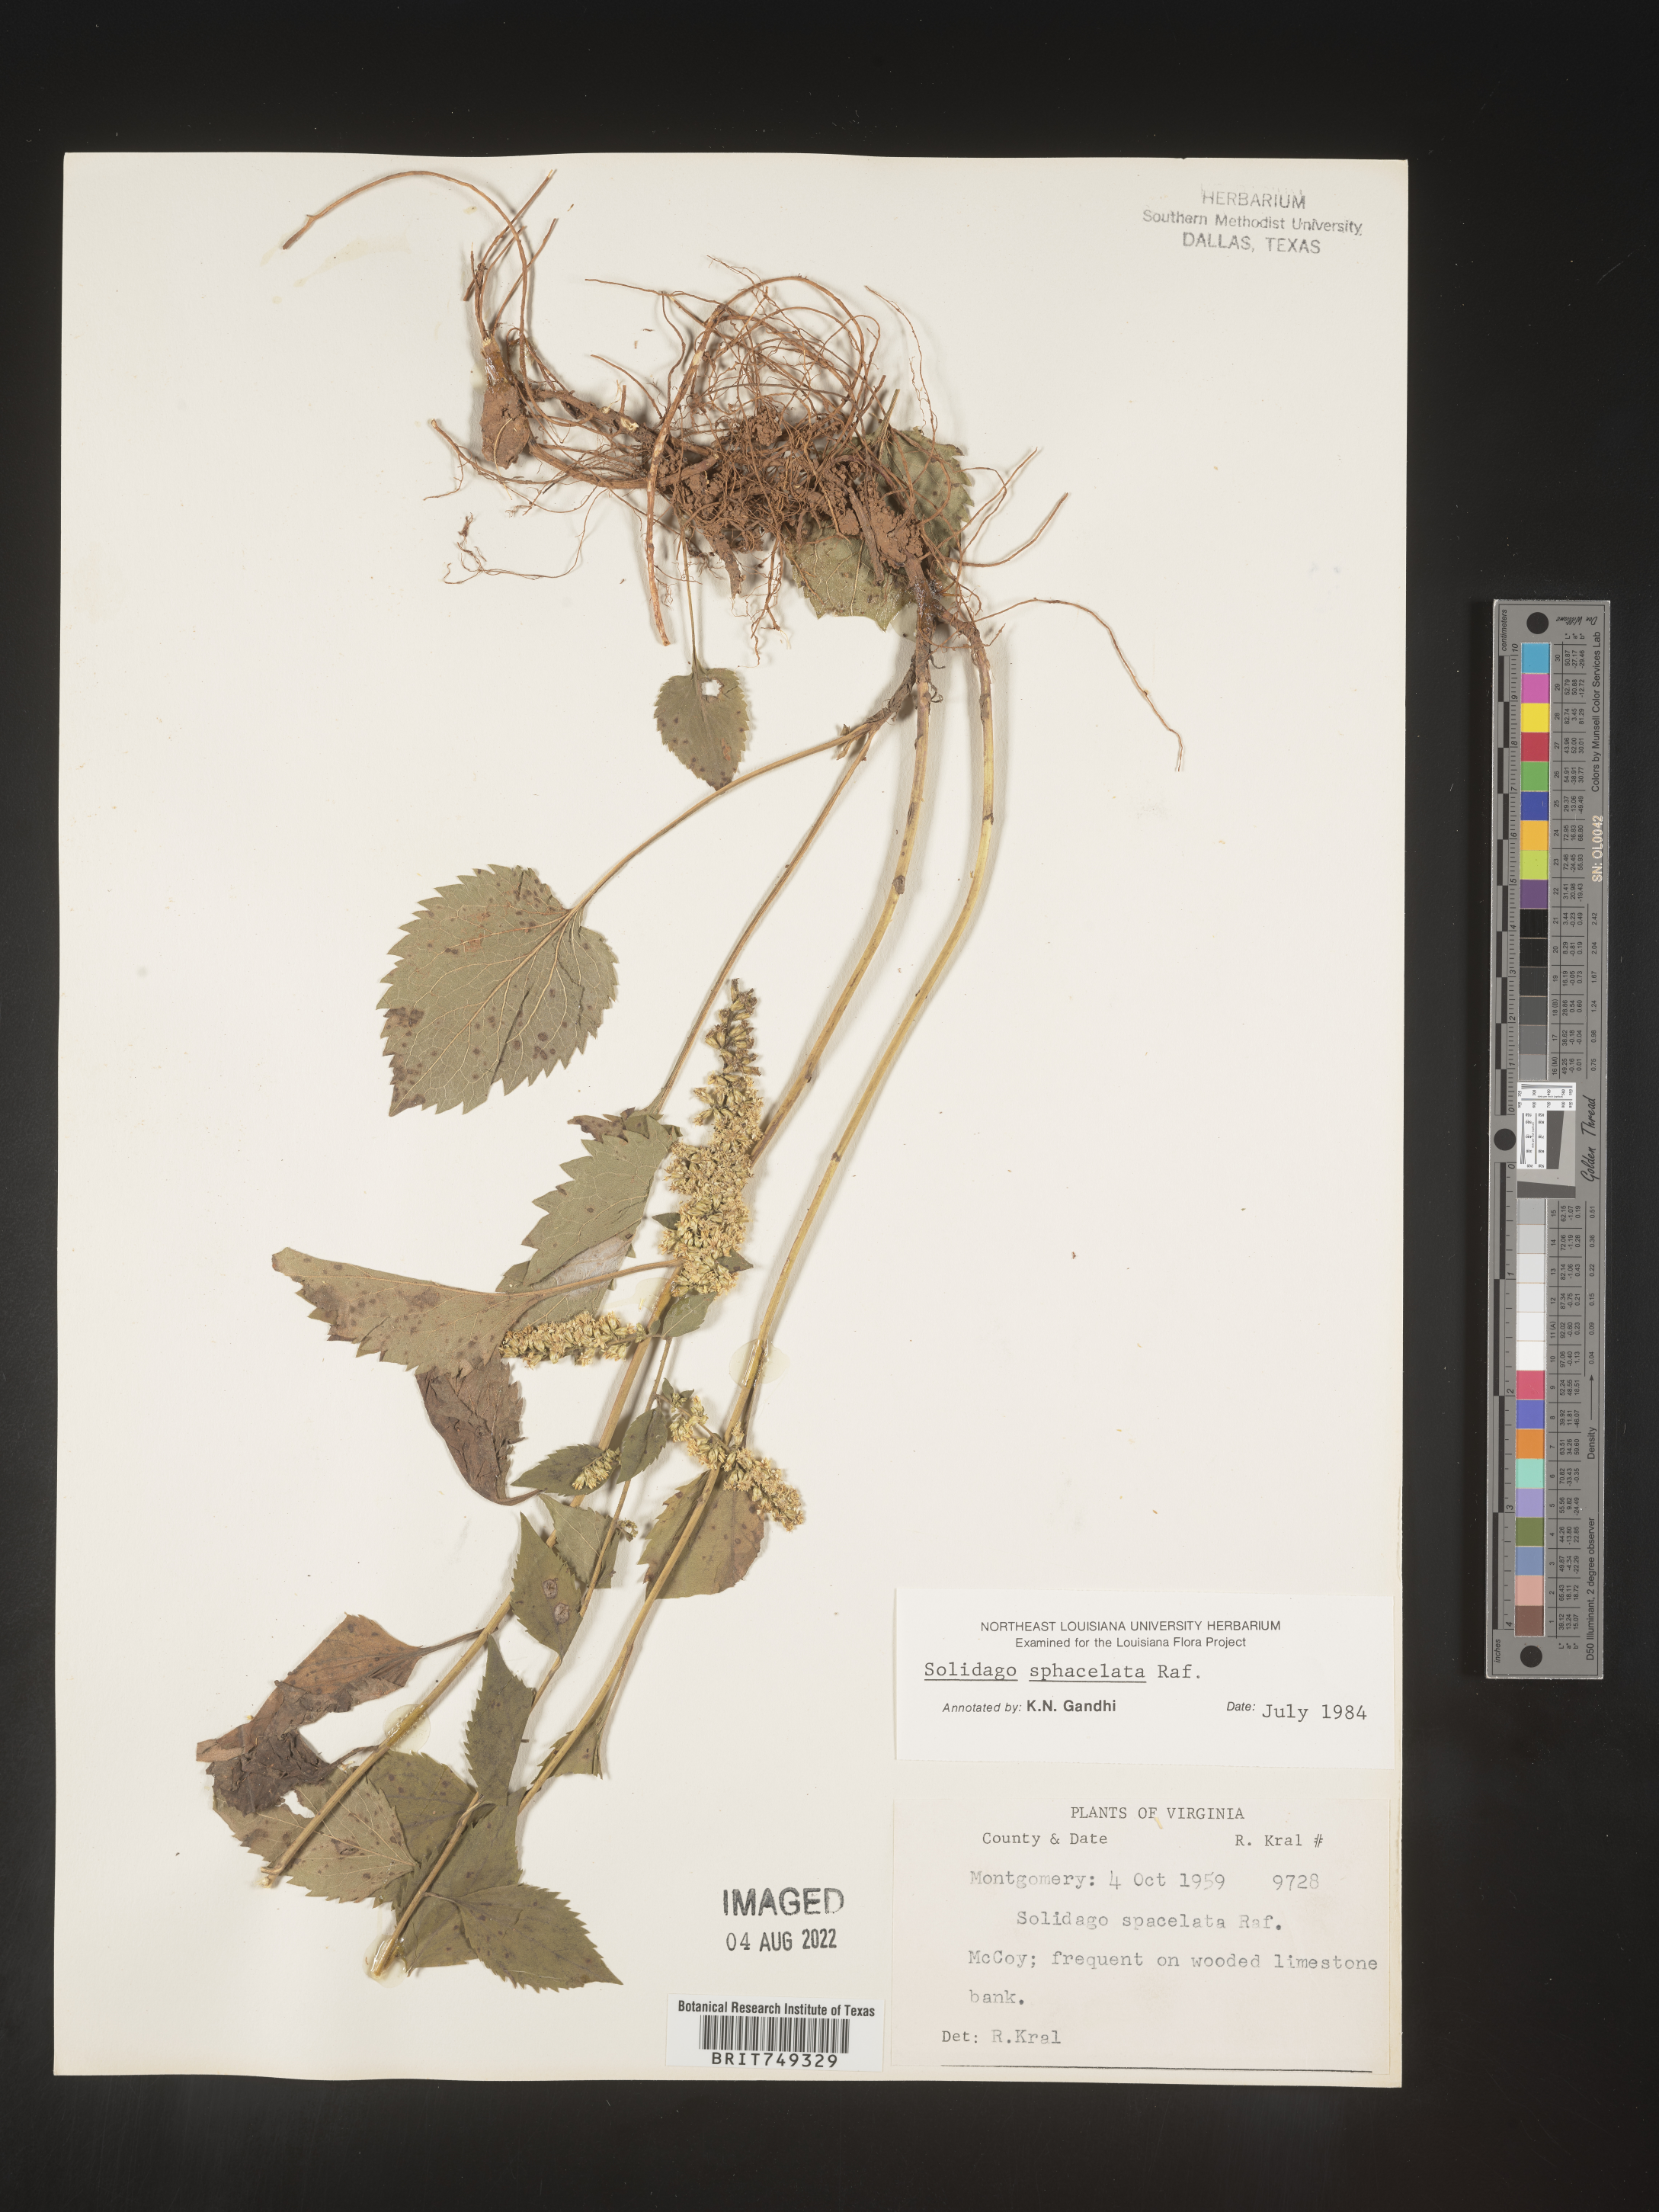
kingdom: Plantae
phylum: Tracheophyta
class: Magnoliopsida
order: Asterales
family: Asteraceae
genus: Solidago
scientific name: Solidago sphacelata
